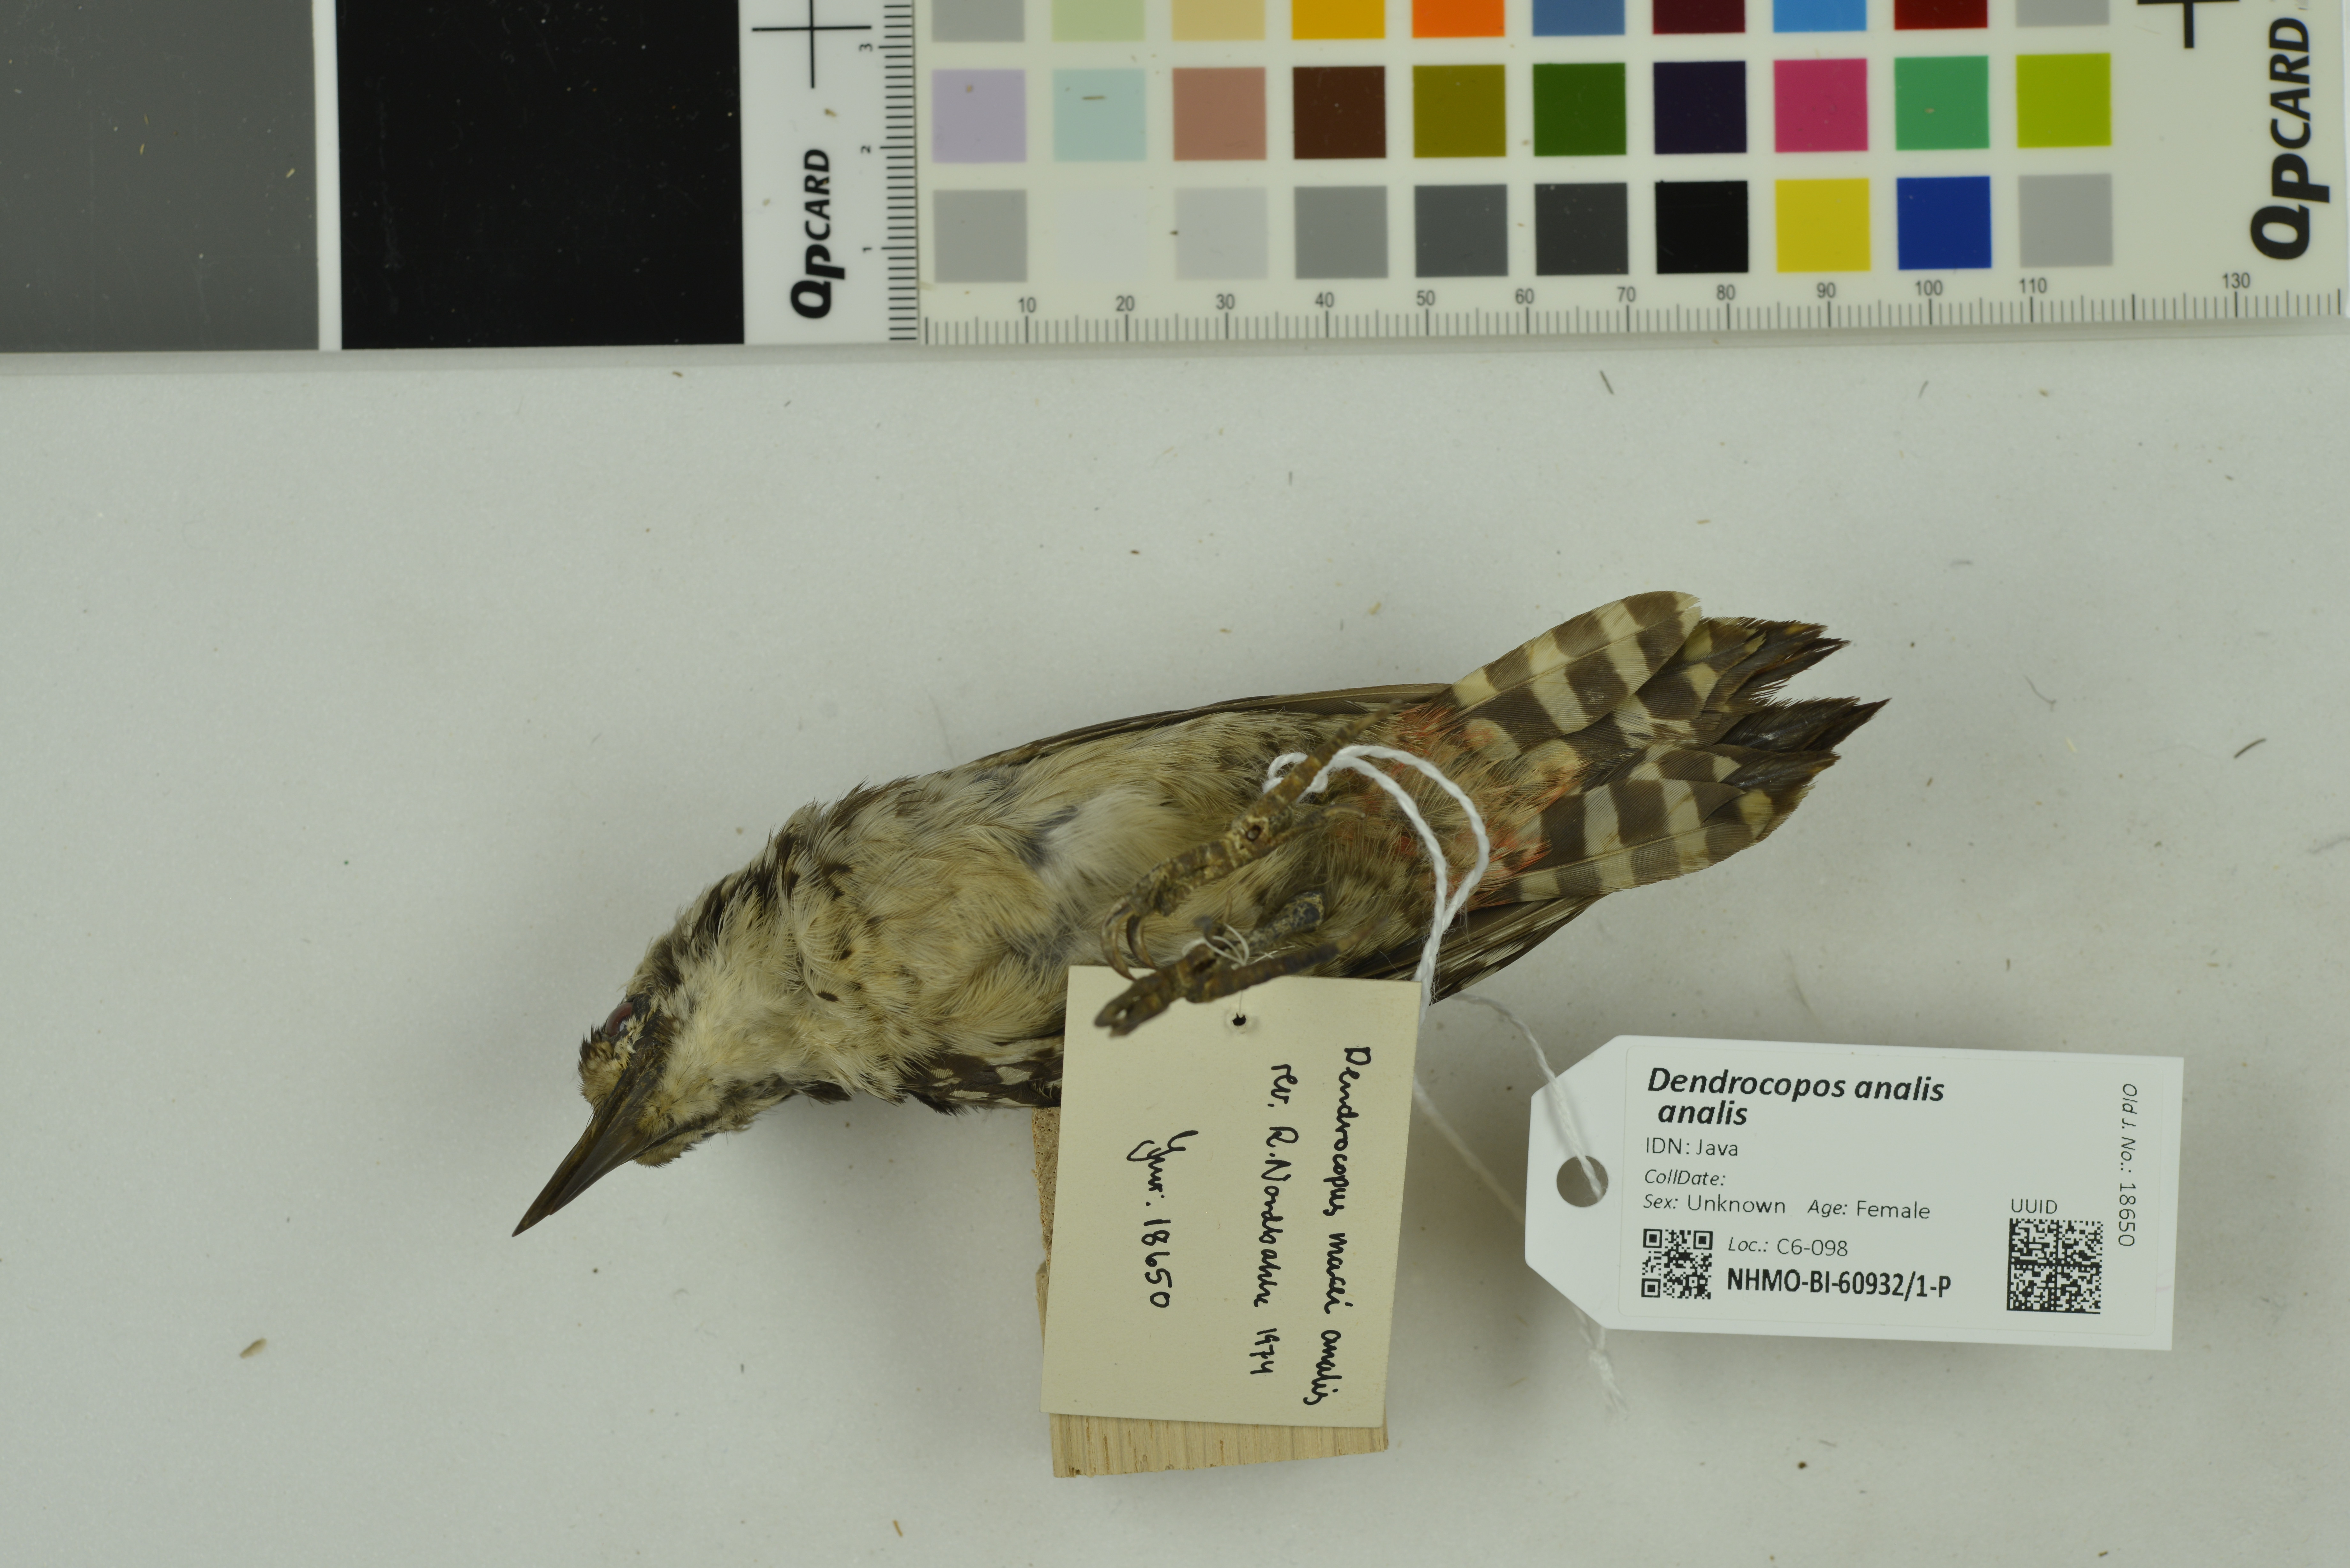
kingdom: Animalia
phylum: Chordata
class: Aves
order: Piciformes
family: Picidae
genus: Dendrocopos
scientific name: Dendrocopos analis
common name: Freckle-breasted woodpecker
